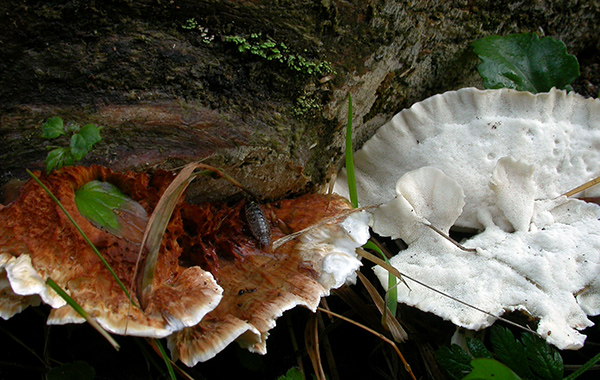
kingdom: Fungi
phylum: Basidiomycota
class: Agaricomycetes
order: Polyporales
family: Dacryobolaceae
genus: Postia
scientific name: Postia balsamea
